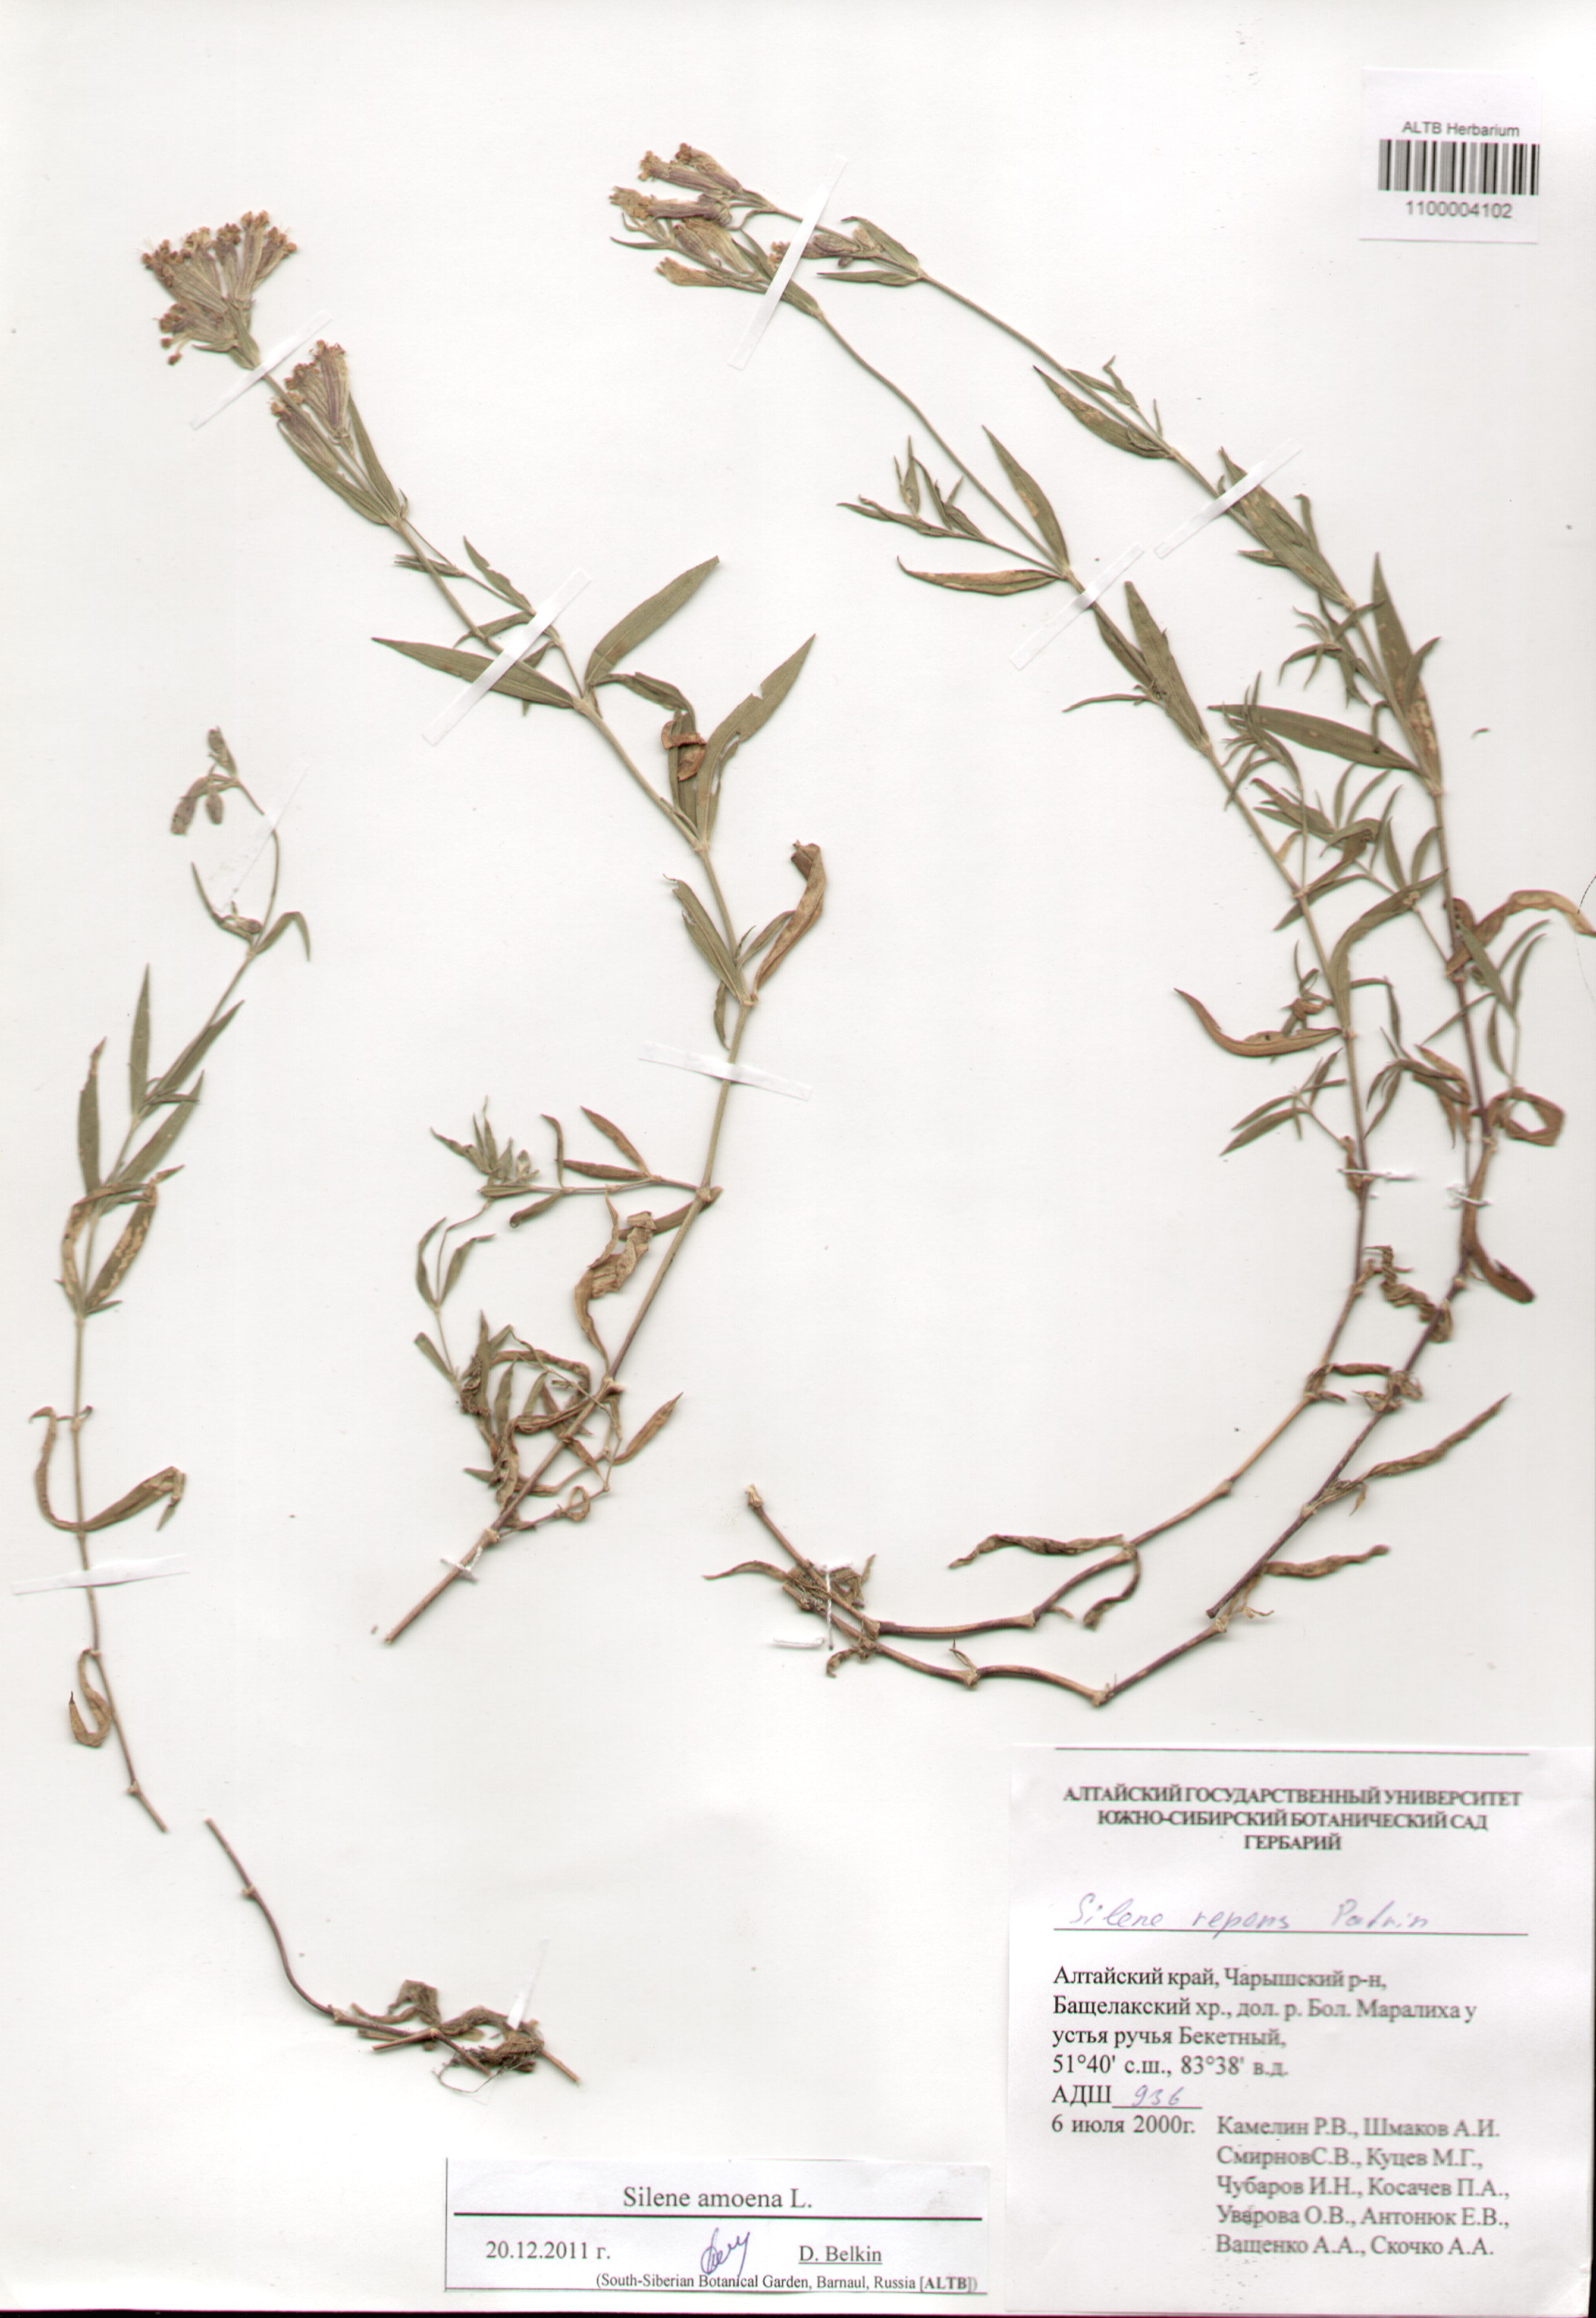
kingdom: Plantae
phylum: Tracheophyta
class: Magnoliopsida
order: Caryophyllales
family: Caryophyllaceae
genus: Silene
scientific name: Silene amoena
